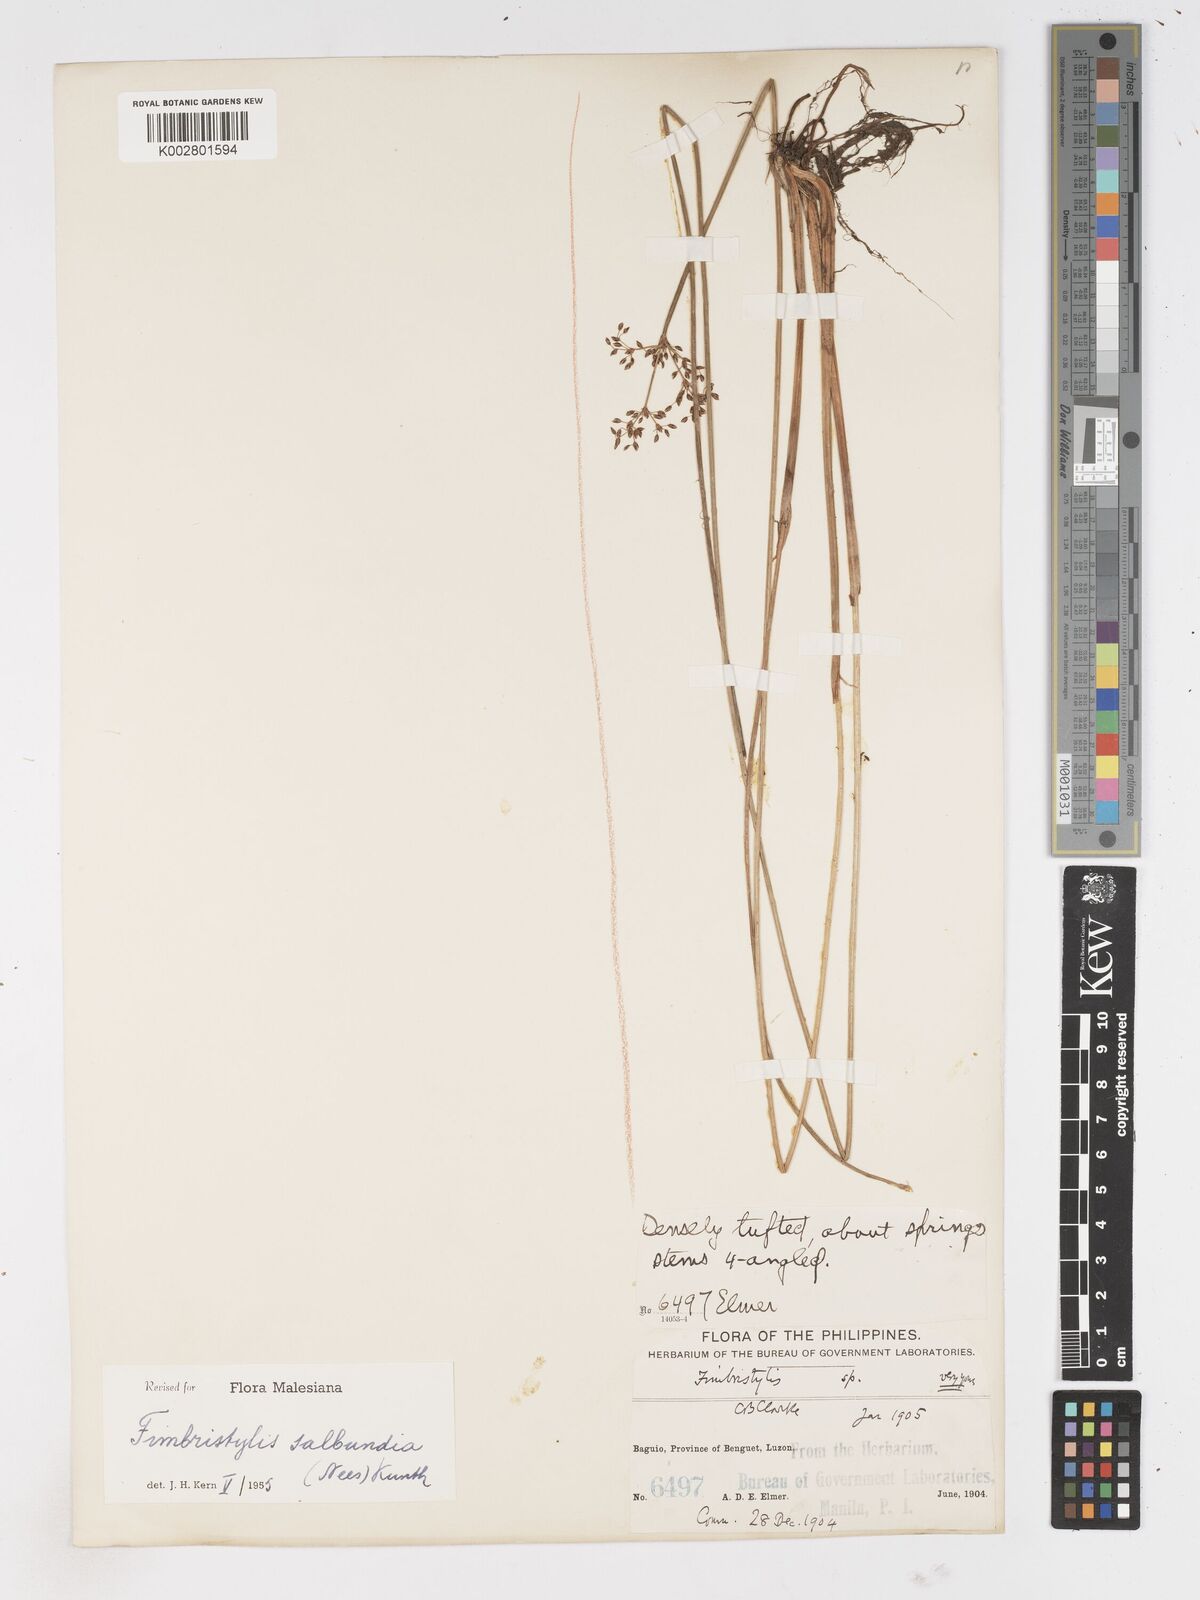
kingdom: Plantae
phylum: Tracheophyta
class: Liliopsida
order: Poales
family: Cyperaceae
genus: Fimbristylis
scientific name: Fimbristylis salbundia
